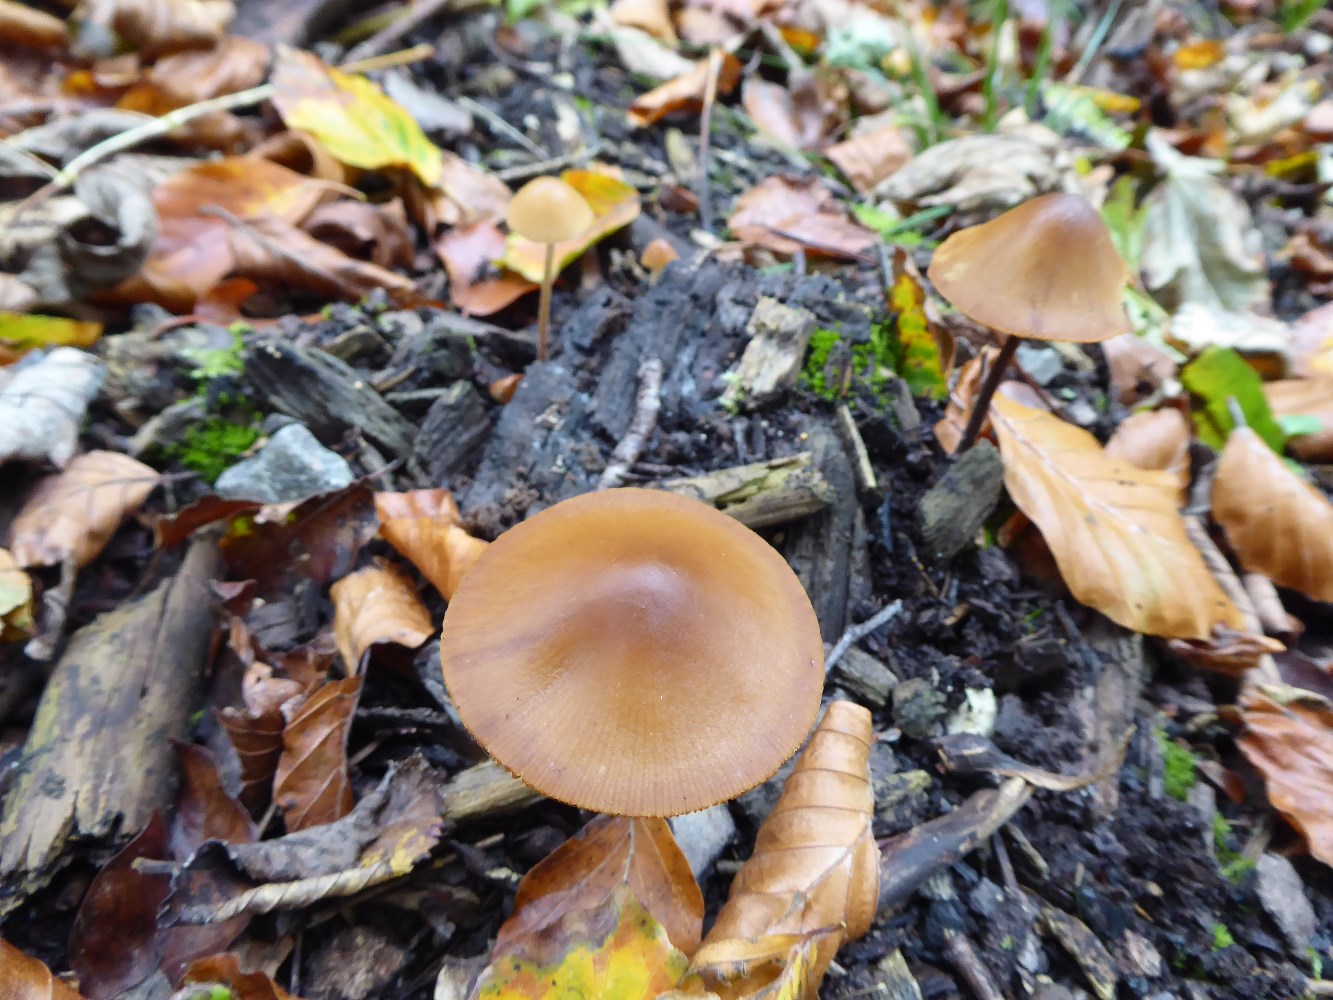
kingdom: Fungi
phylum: Basidiomycota
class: Agaricomycetes
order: Agaricales
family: Bolbitiaceae
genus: Conocybe
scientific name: Conocybe
